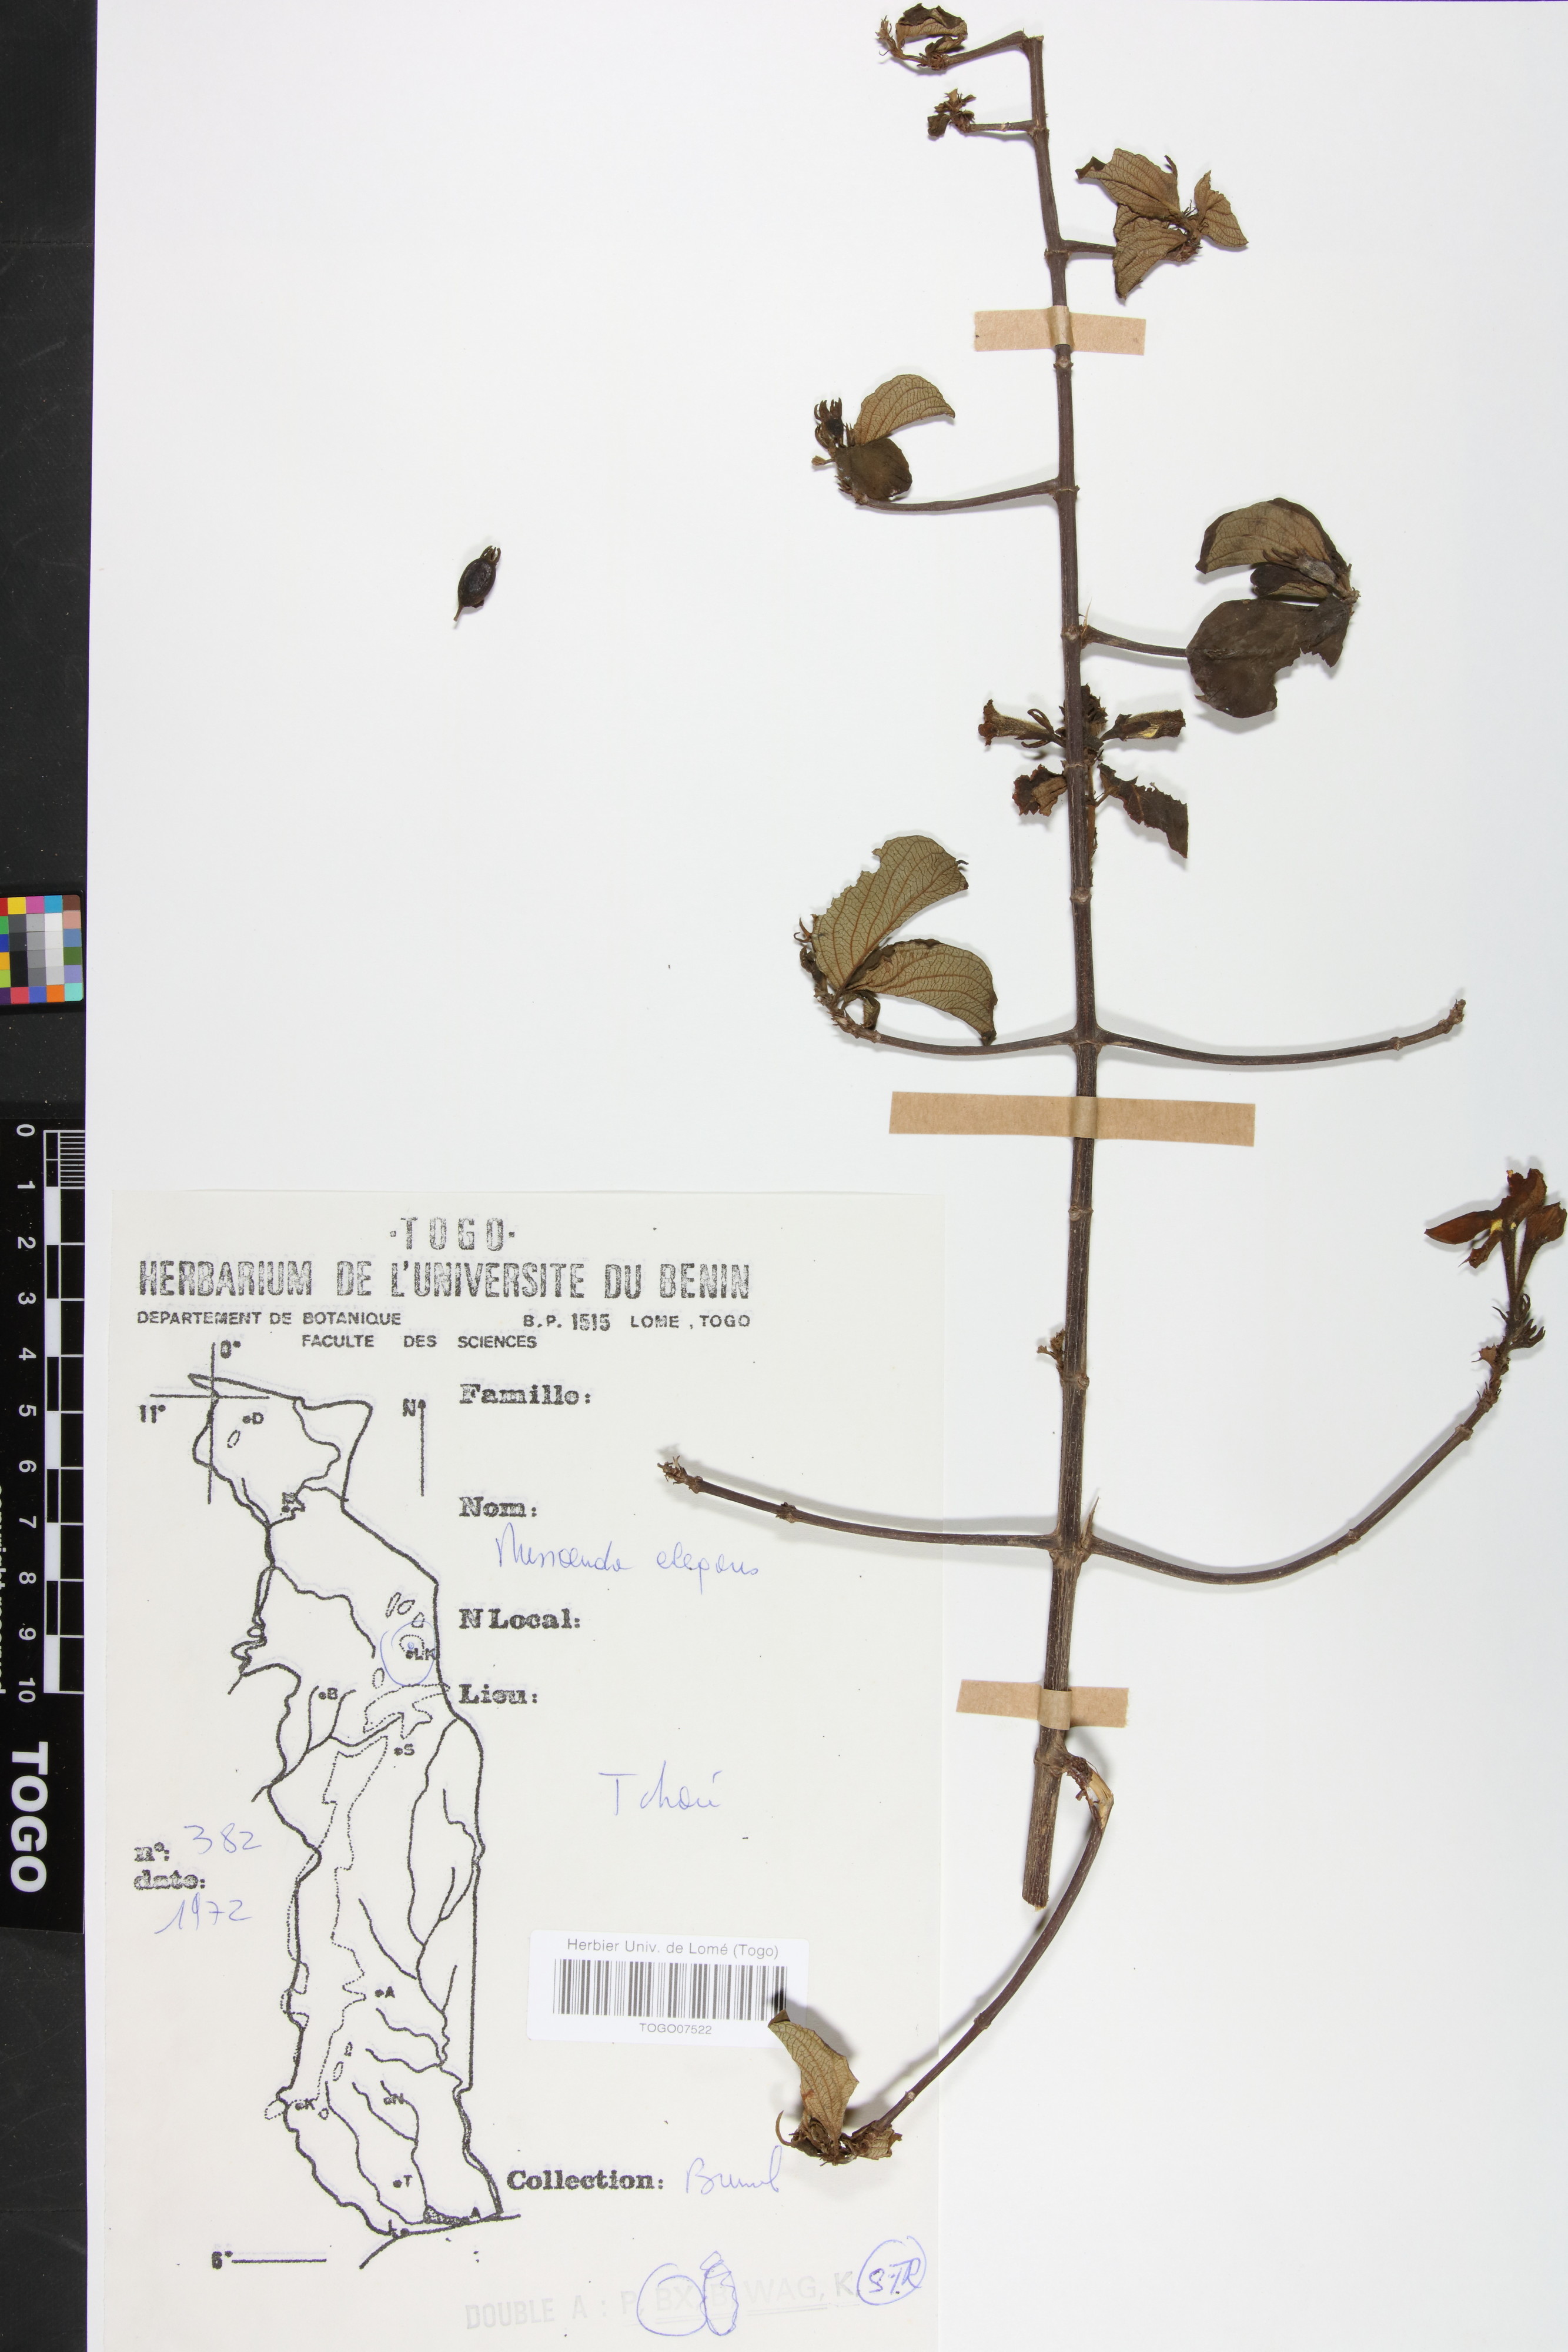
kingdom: Plantae
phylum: Tracheophyta
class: Magnoliopsida
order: Gentianales
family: Rubiaceae
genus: Mussaenda
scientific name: Mussaenda elegans
